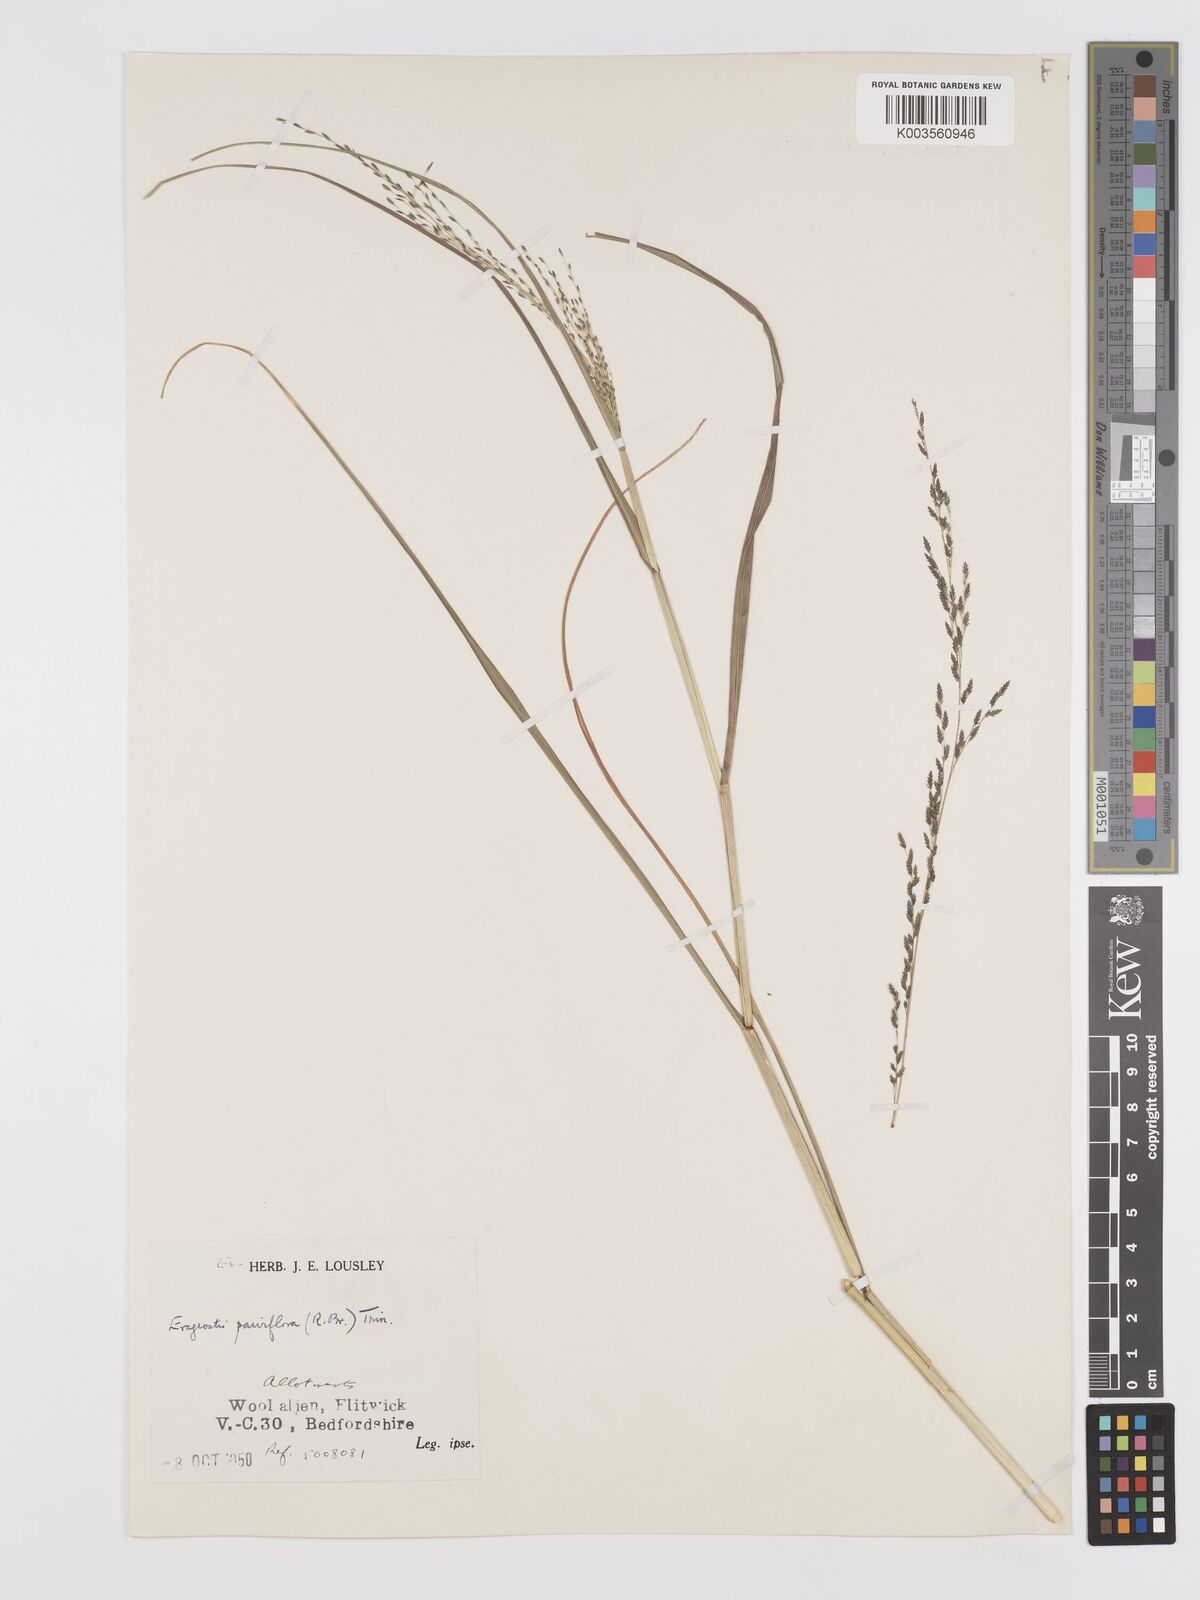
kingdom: Plantae
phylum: Tracheophyta
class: Liliopsida
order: Poales
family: Poaceae
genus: Eragrostis
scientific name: Eragrostis parviflora
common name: Weeping love-grass
